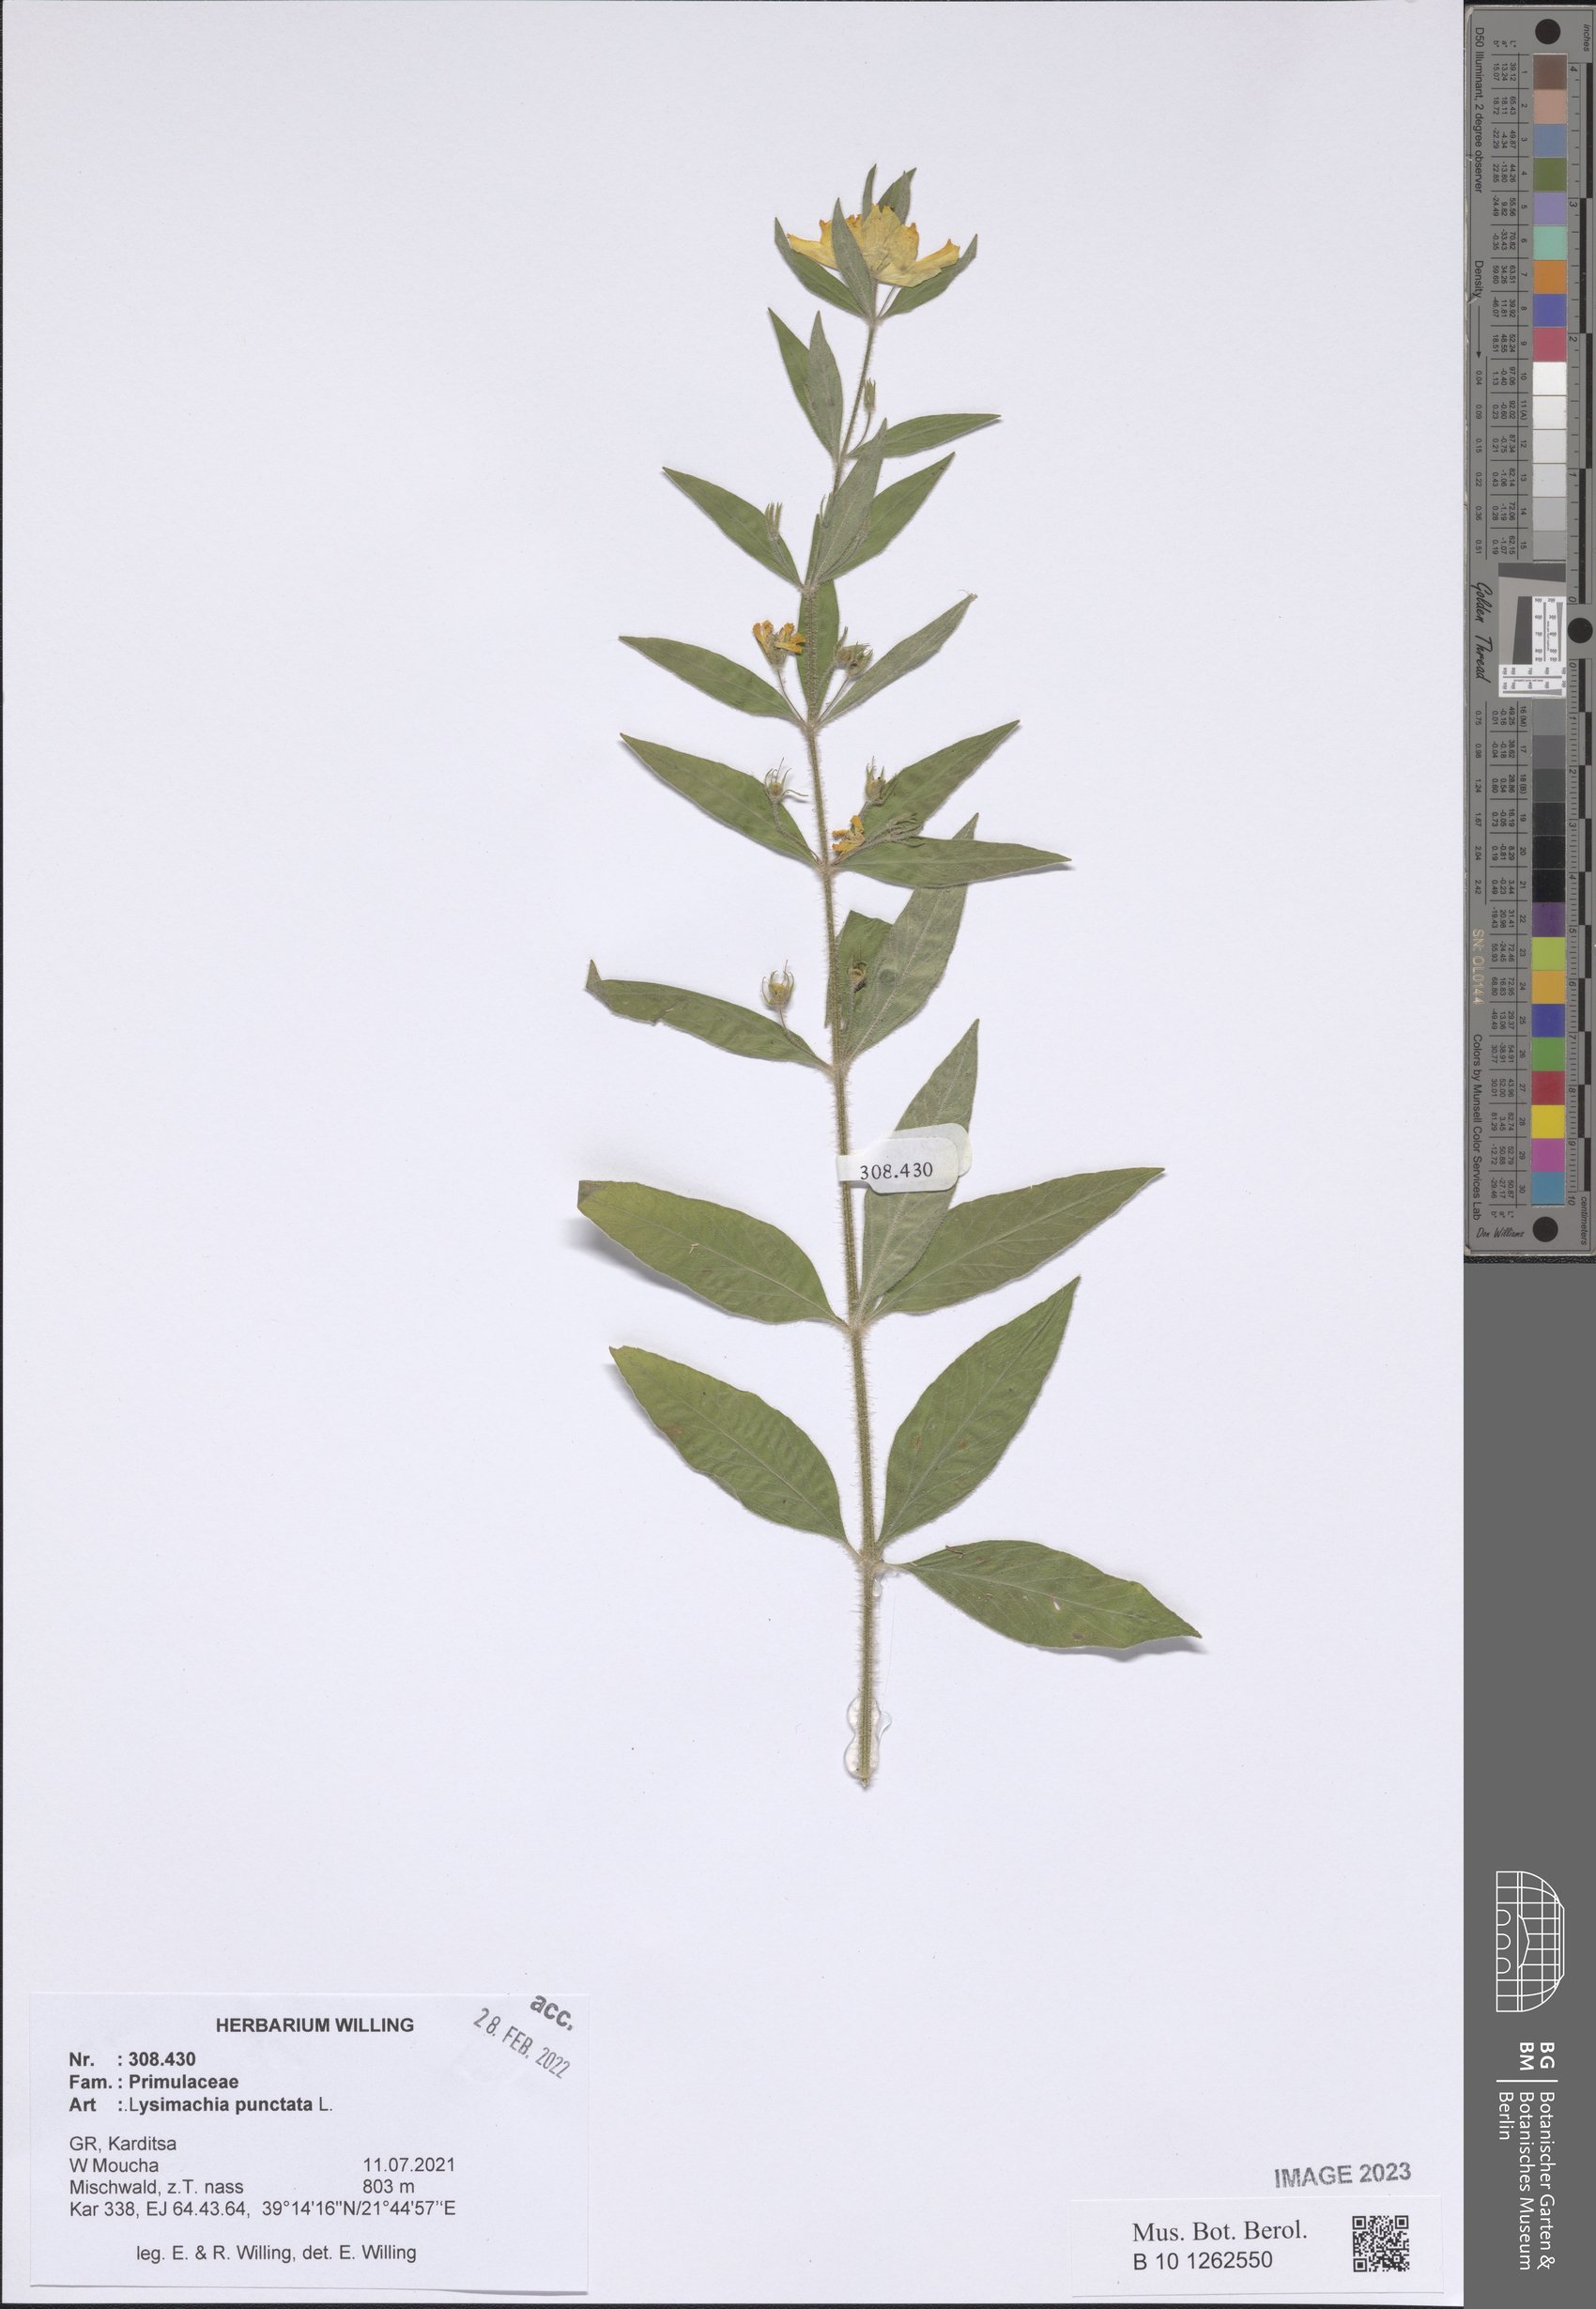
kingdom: Plantae
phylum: Tracheophyta
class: Magnoliopsida
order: Ericales
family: Primulaceae
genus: Lysimachia
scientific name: Lysimachia punctata
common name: Dotted loosestrife
